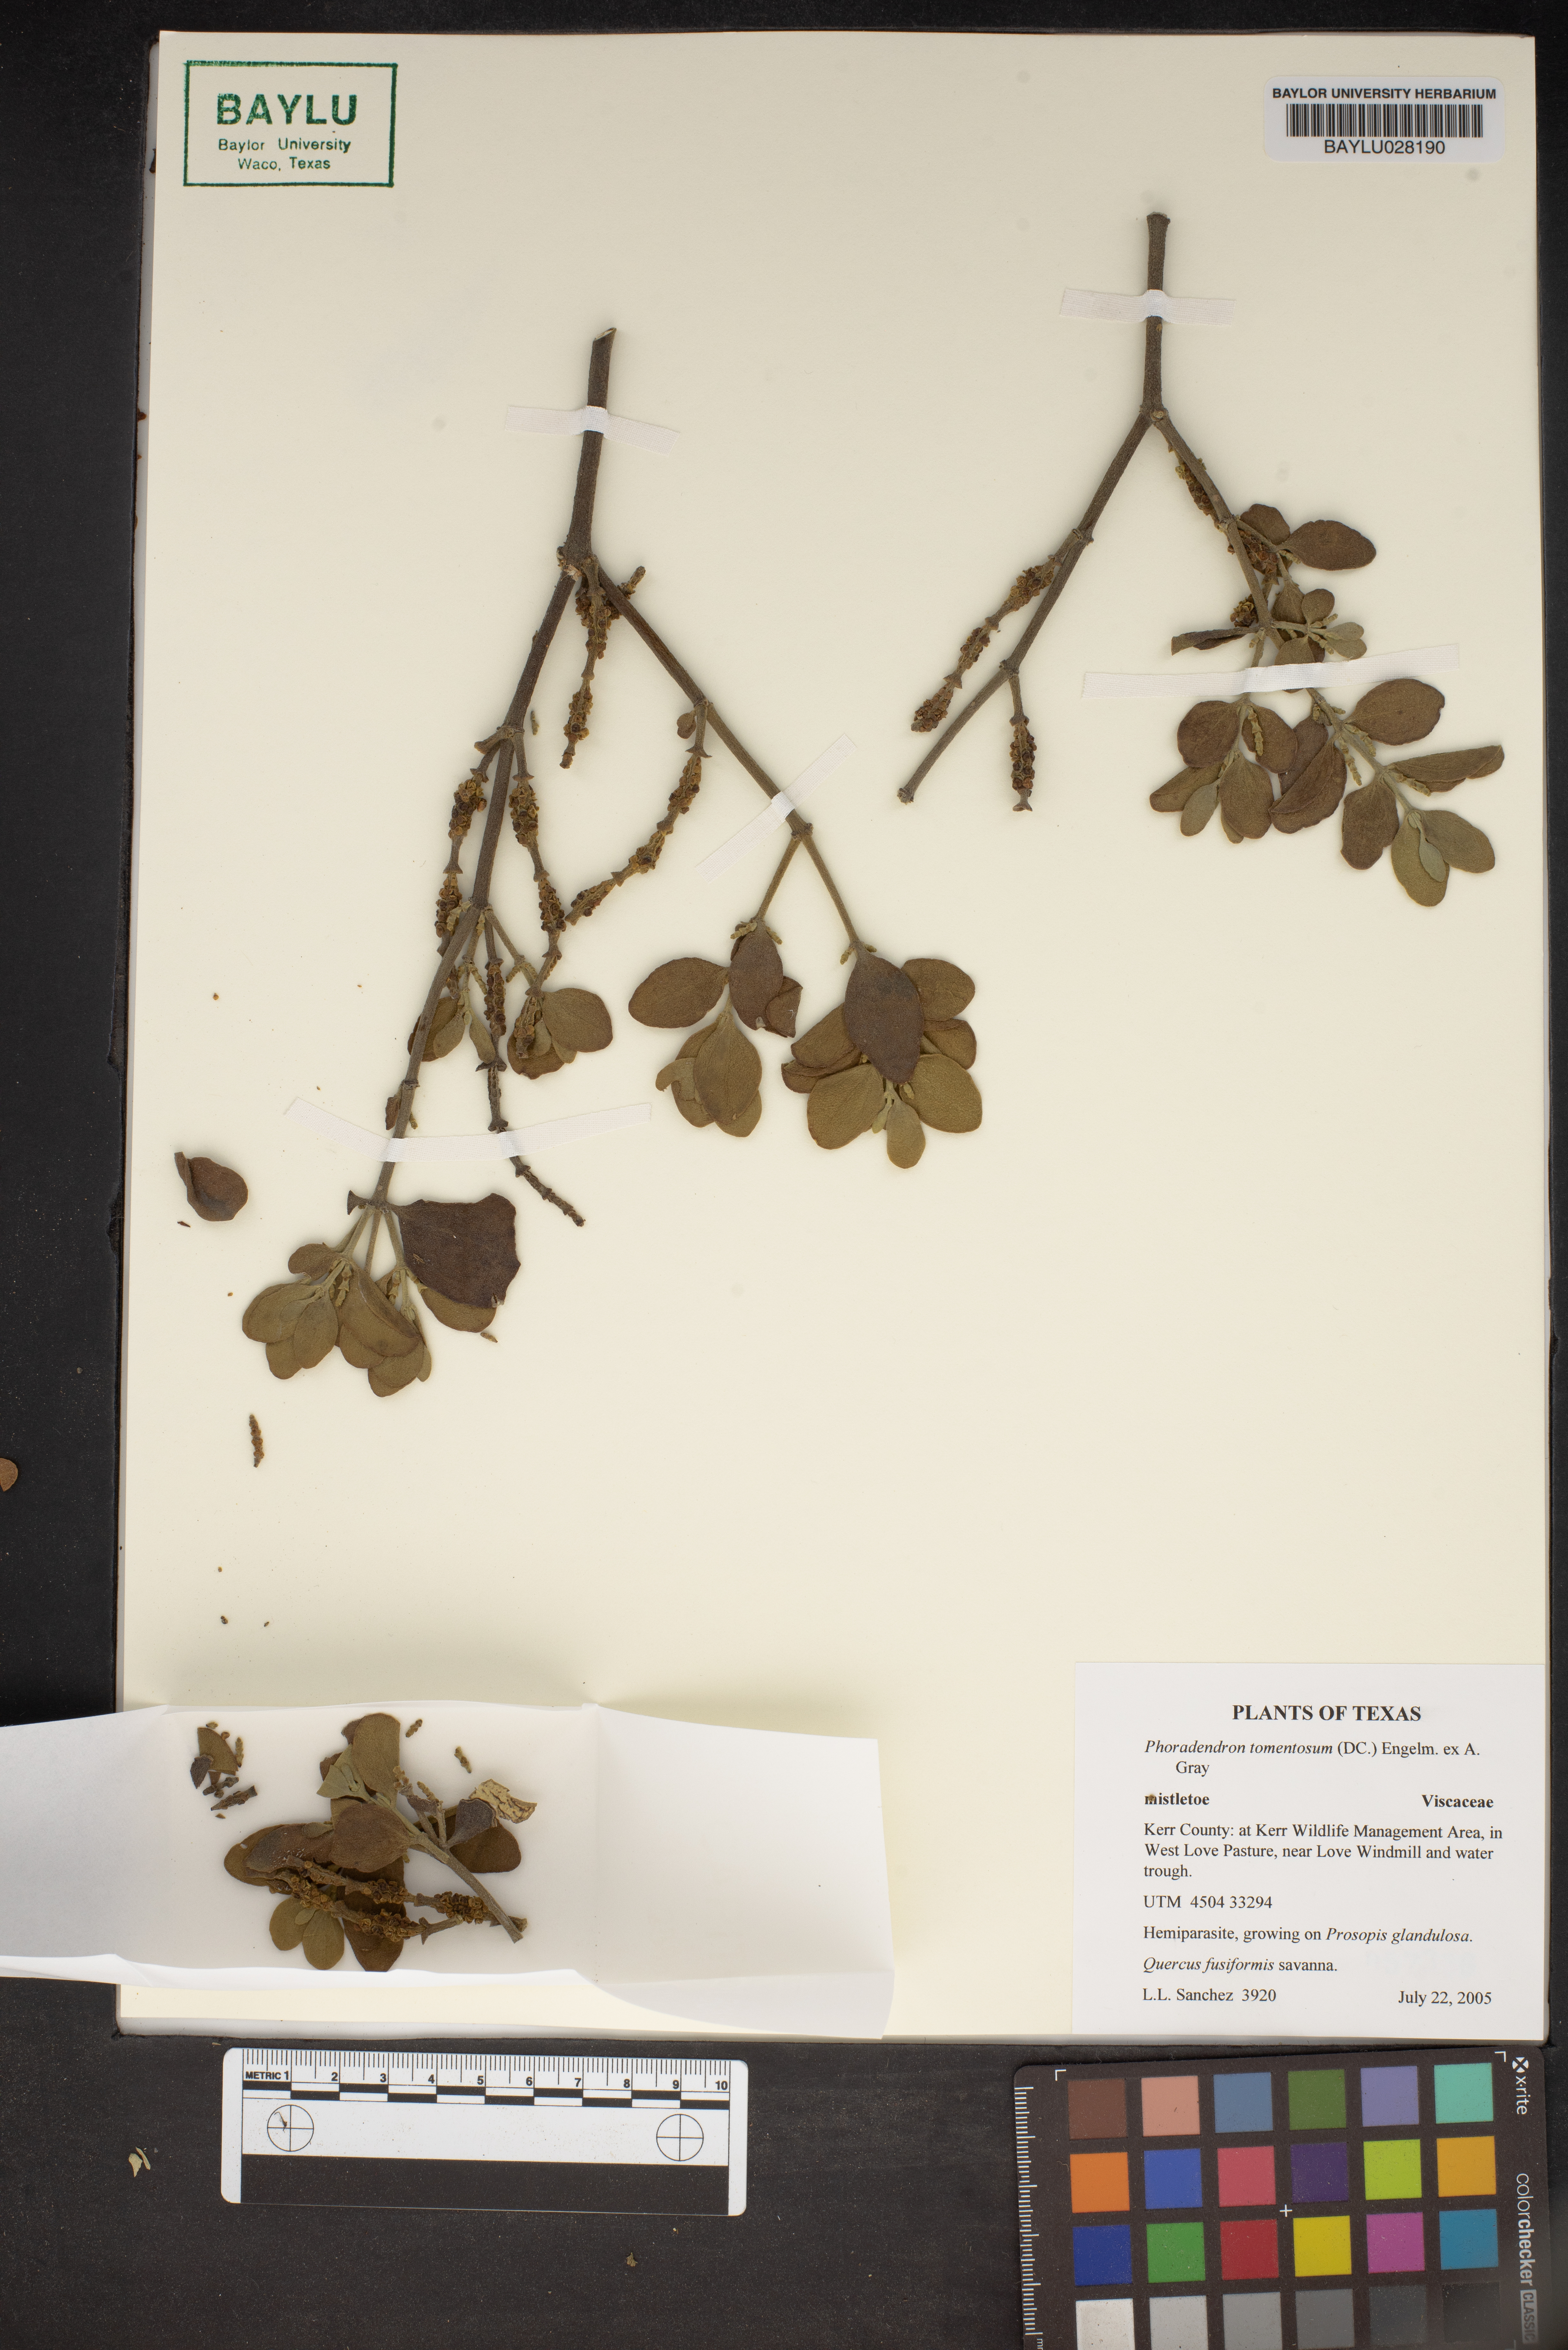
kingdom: Plantae
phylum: Tracheophyta
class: Magnoliopsida
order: Santalales
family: Viscaceae
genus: Phoradendron
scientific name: Phoradendron leucarpum
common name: Pacific mistletoe
